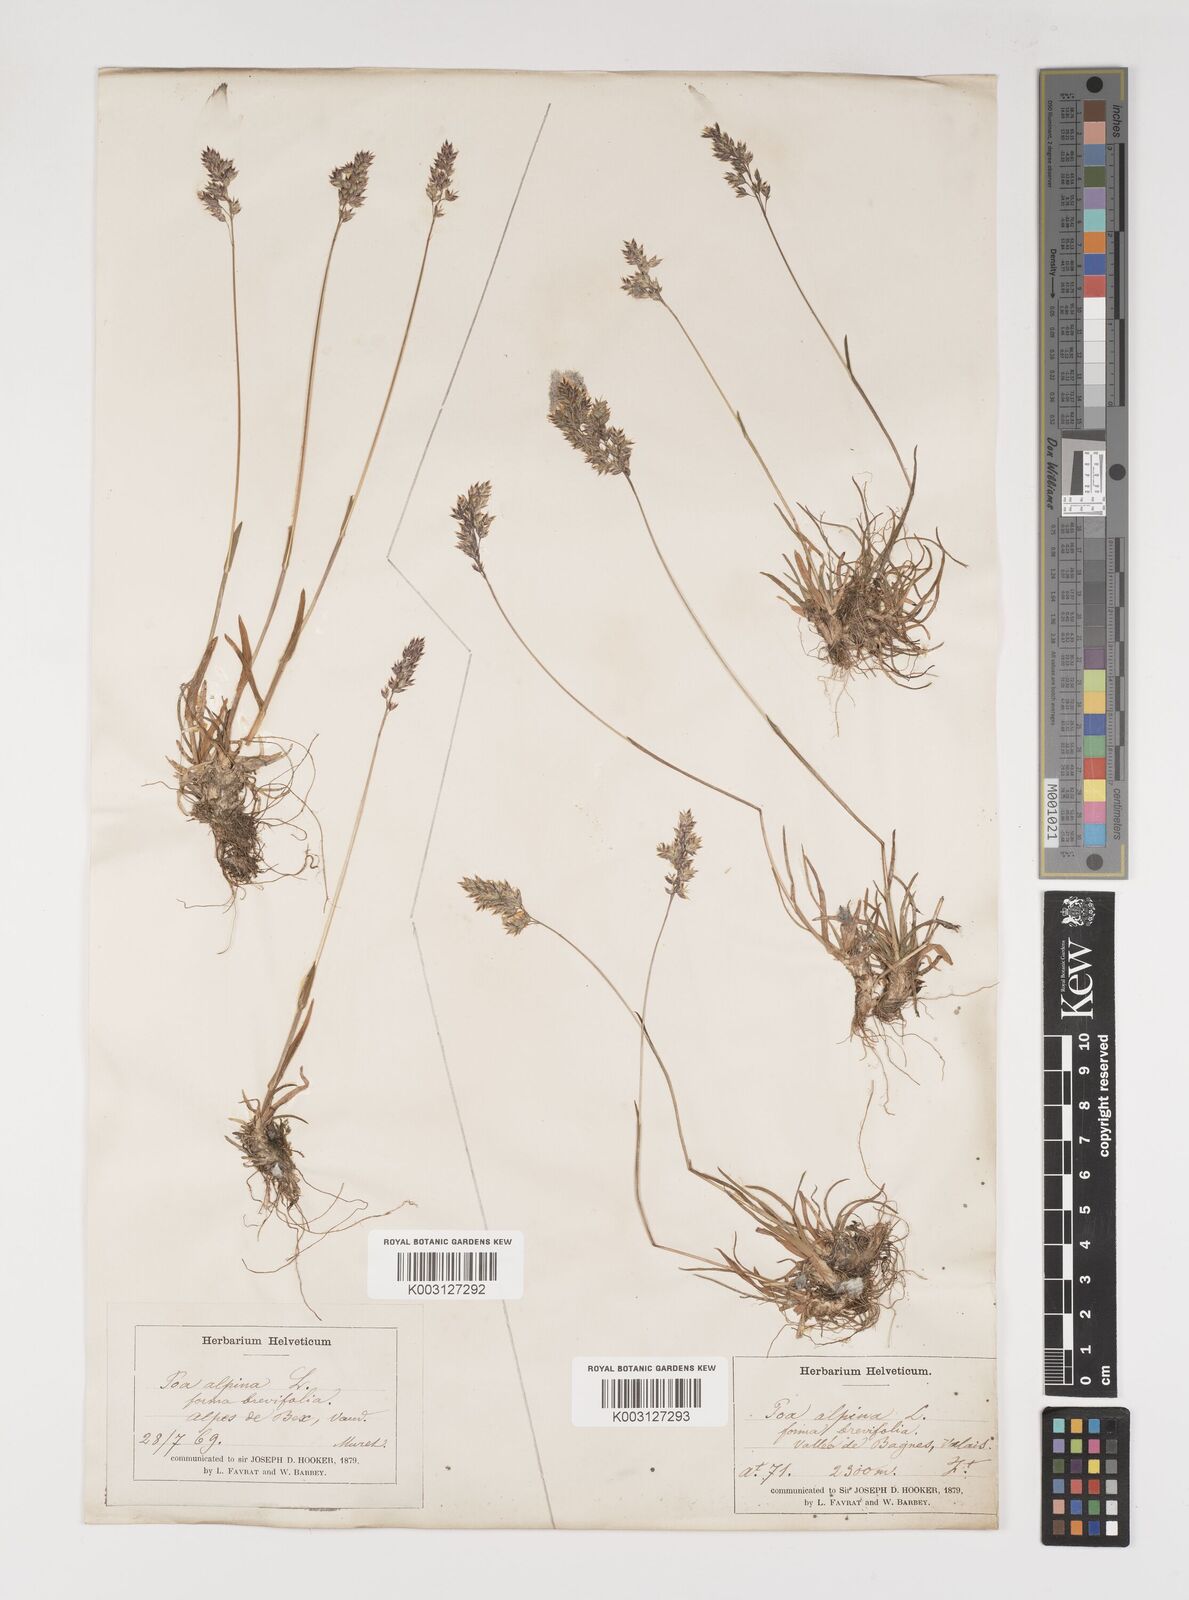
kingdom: Plantae
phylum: Tracheophyta
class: Liliopsida
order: Poales
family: Poaceae
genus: Poa
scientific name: Poa alpina
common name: Alpine bluegrass
